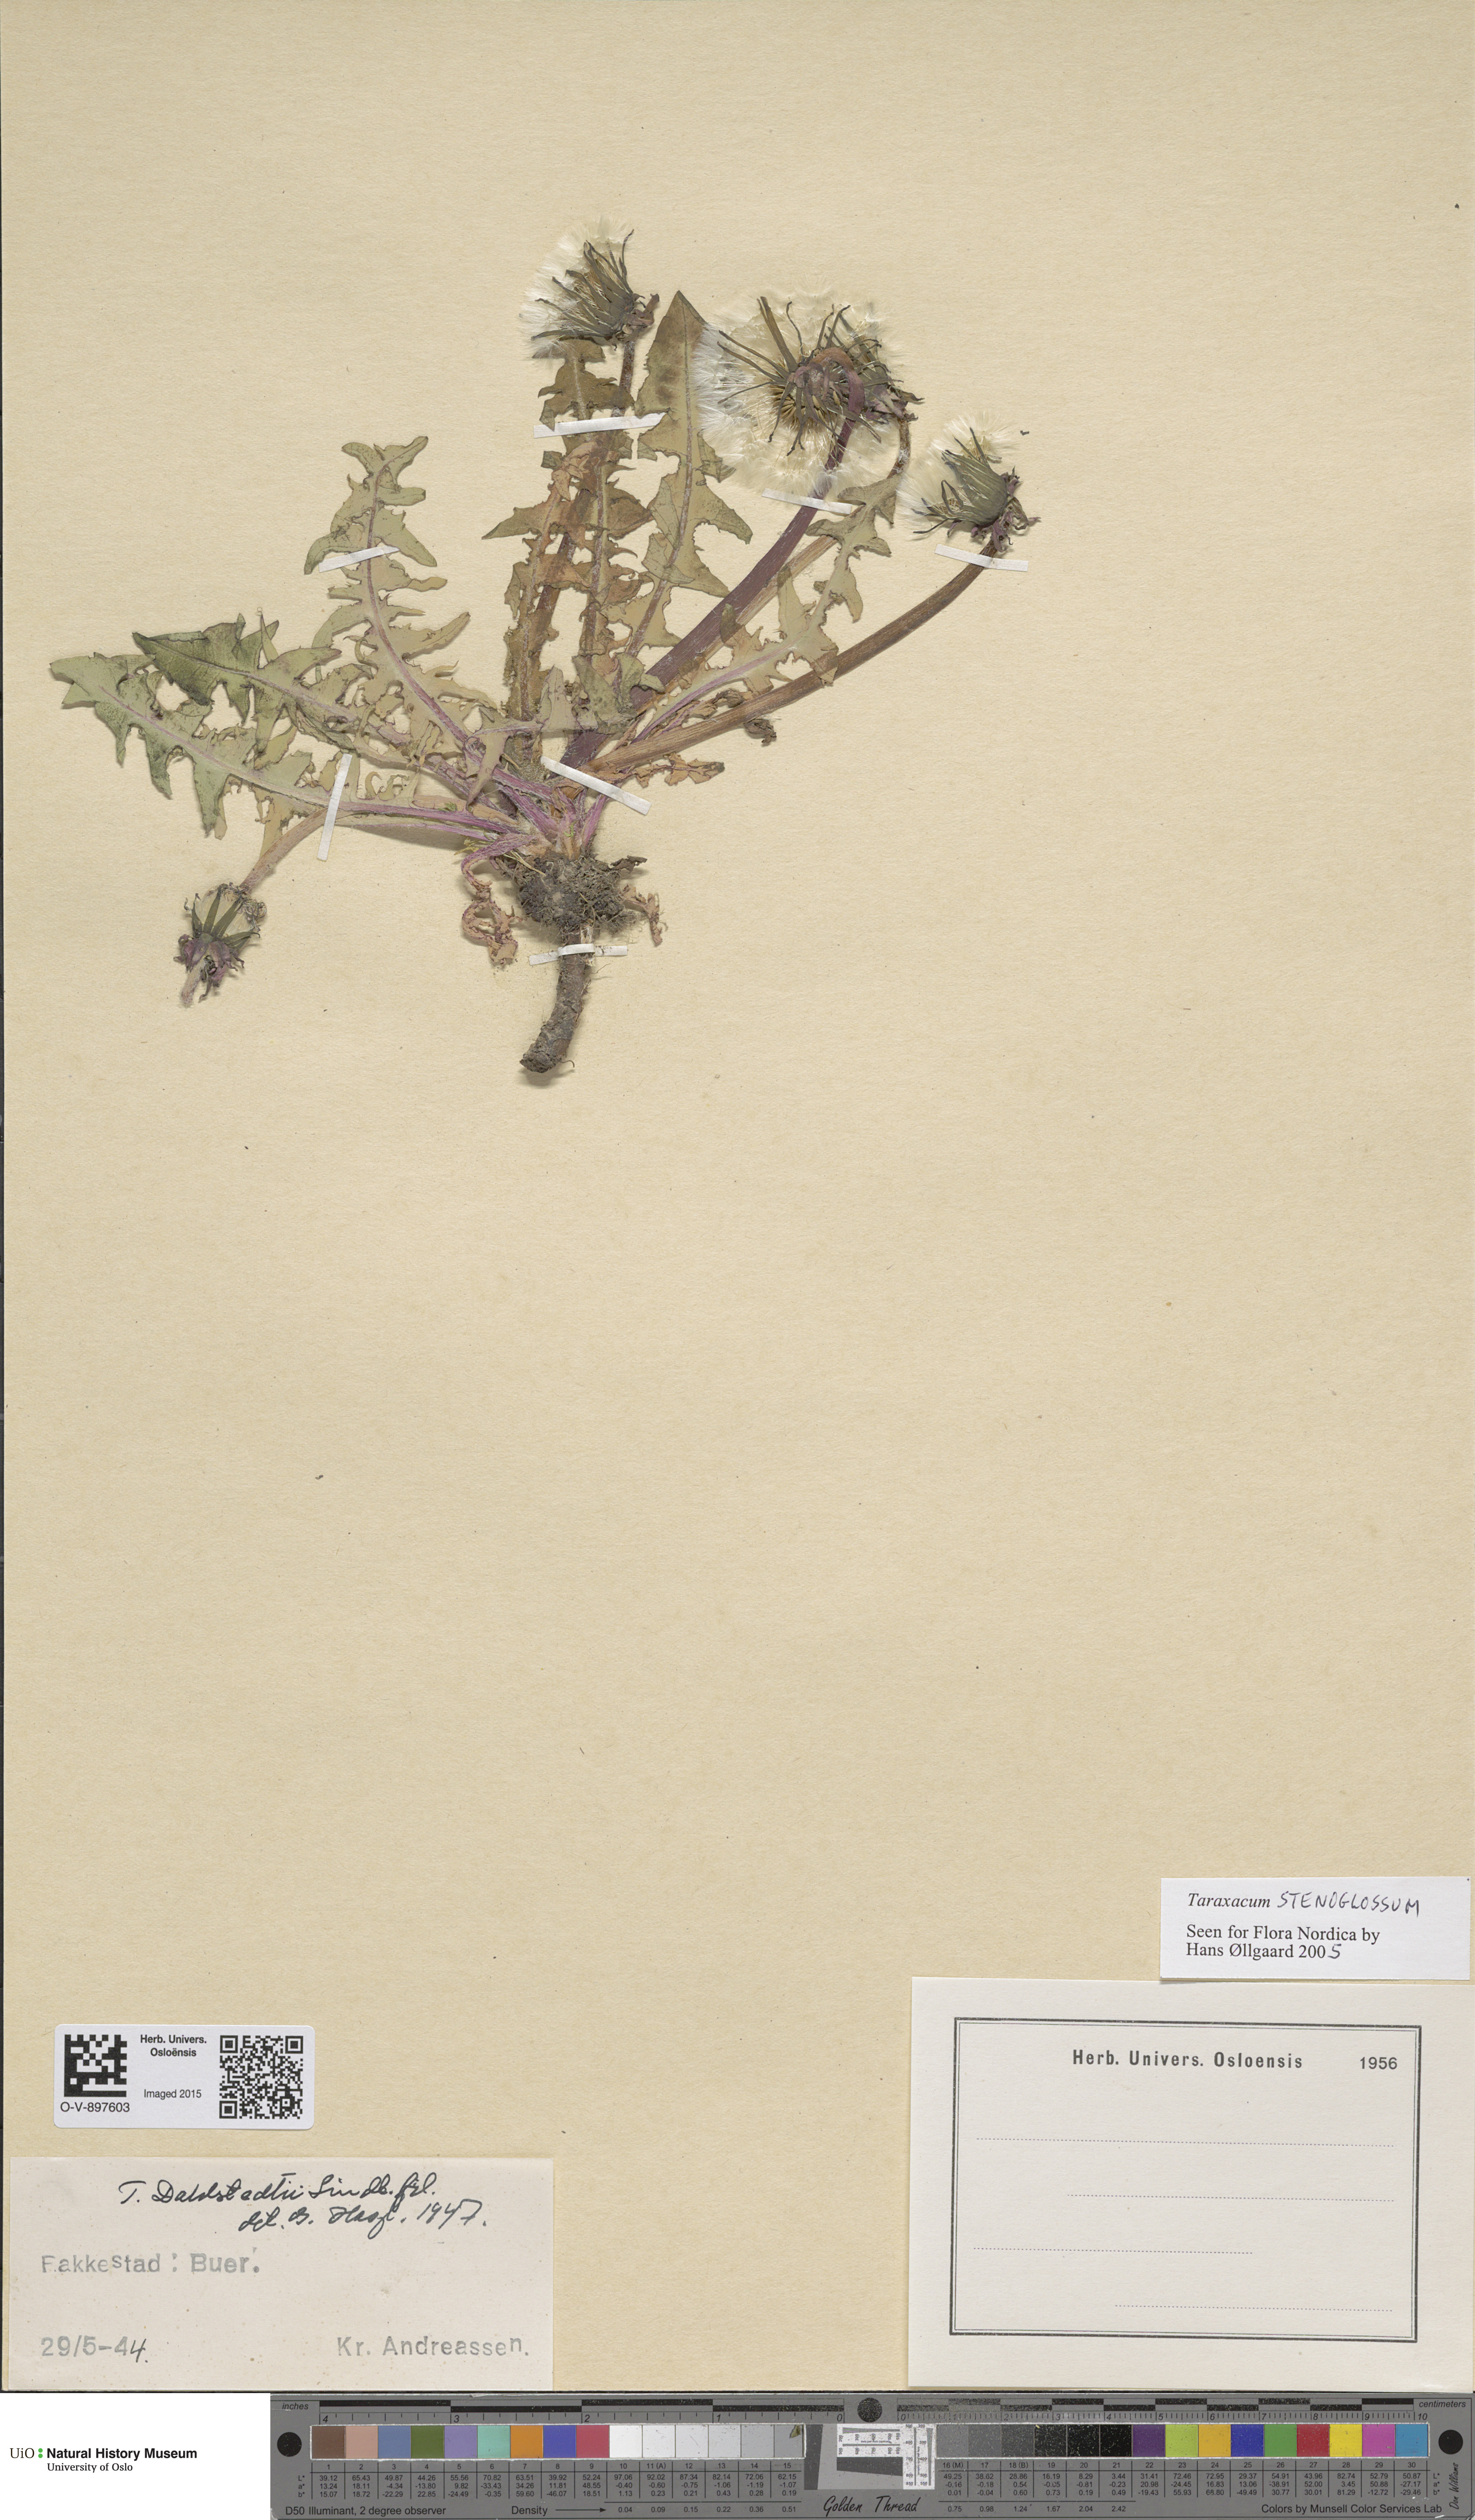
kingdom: Plantae
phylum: Tracheophyta
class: Magnoliopsida
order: Asterales
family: Asteraceae
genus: Taraxacum
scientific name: Taraxacum stenoglossum
